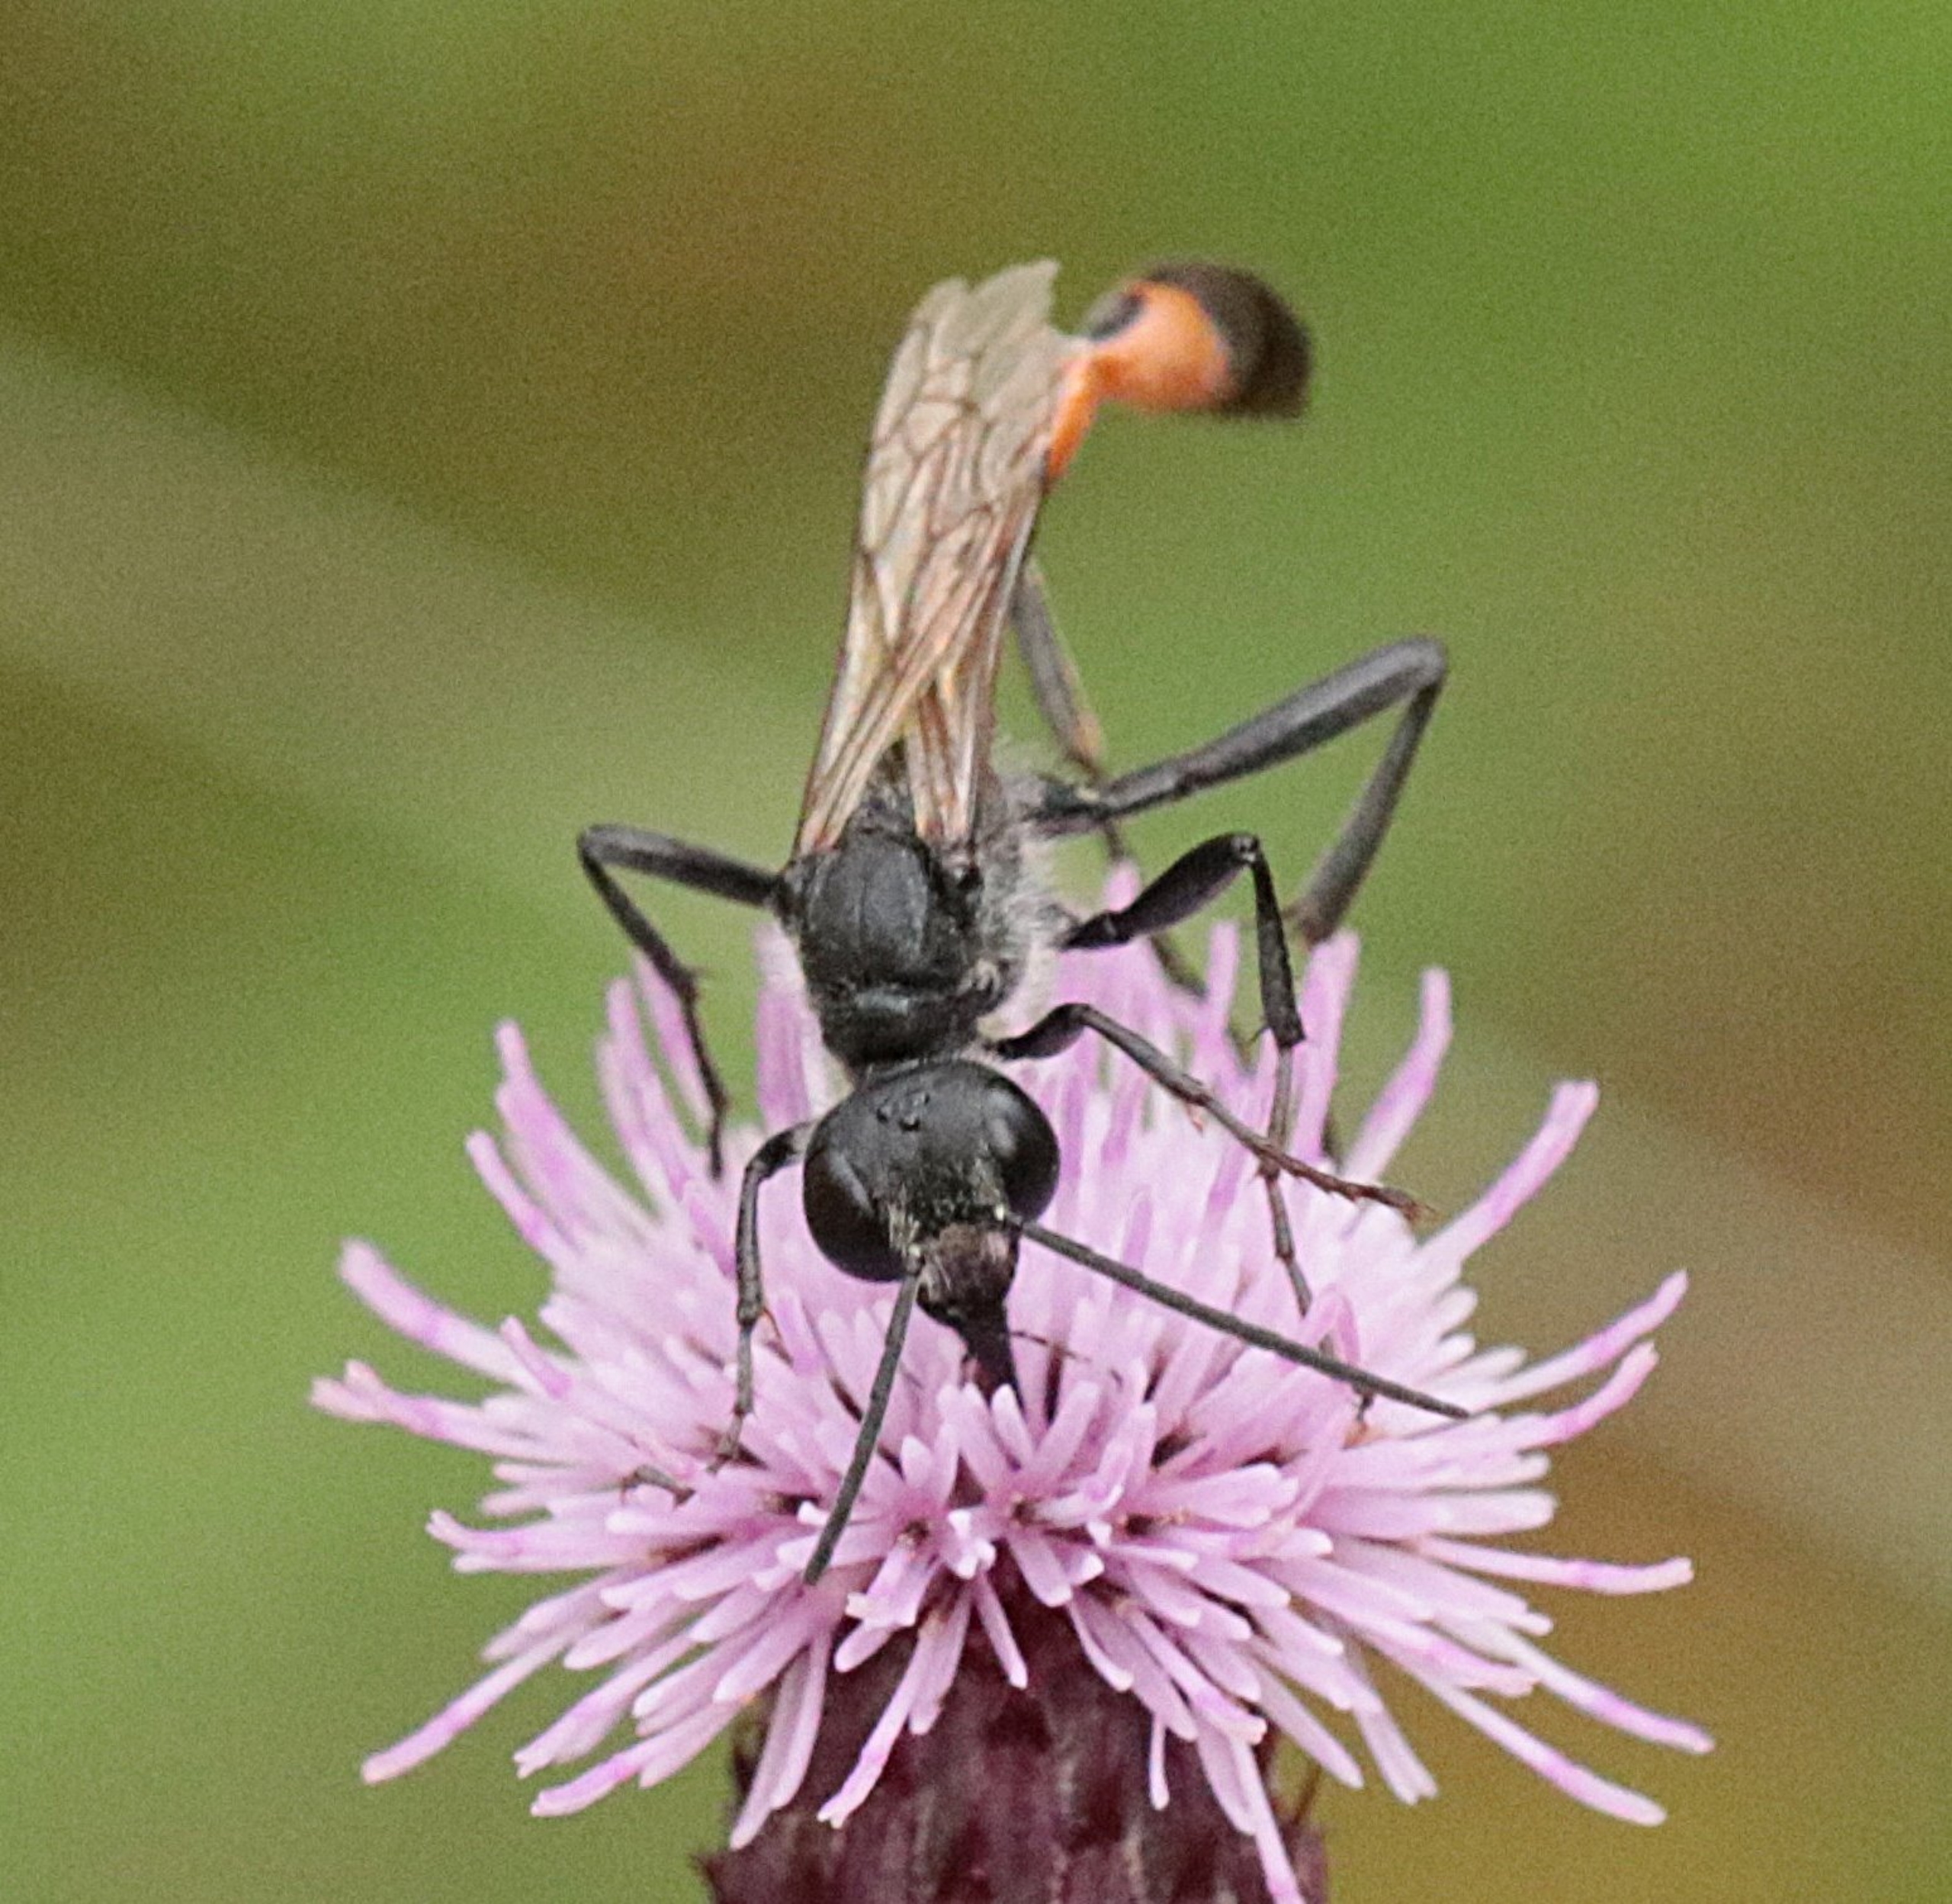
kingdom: Animalia
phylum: Arthropoda
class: Insecta
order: Hymenoptera
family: Sphecidae
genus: Ammophila
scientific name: Ammophila sabulosa
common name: Almindelig sandhveps
